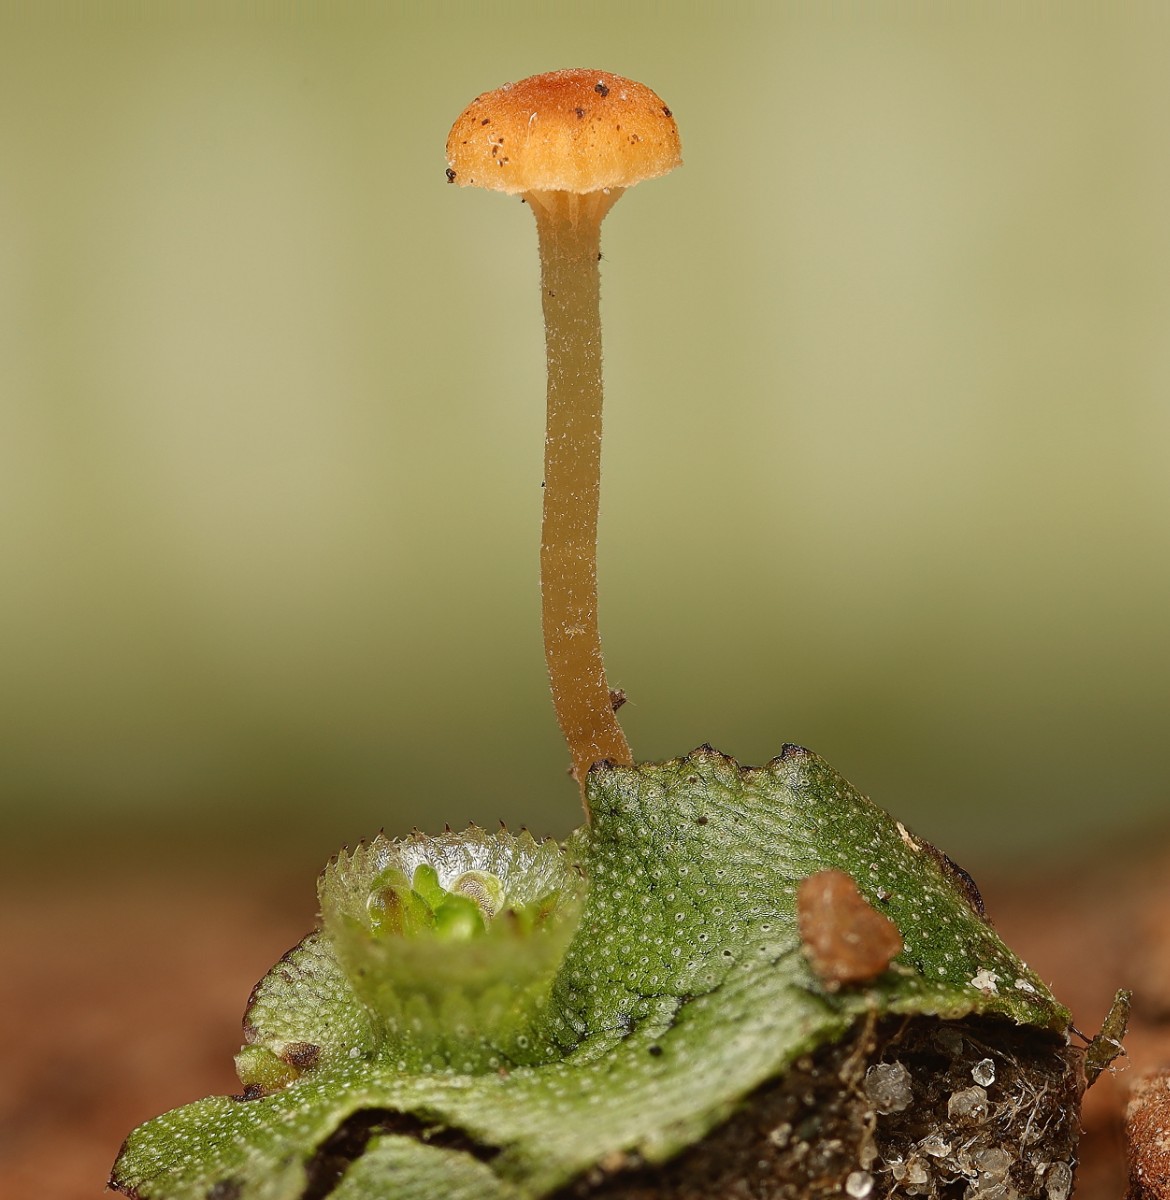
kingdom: Fungi
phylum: Basidiomycota
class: Agaricomycetes
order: Hymenochaetales
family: Rickenellaceae
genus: Loreleia
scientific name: Loreleia marchantiae
